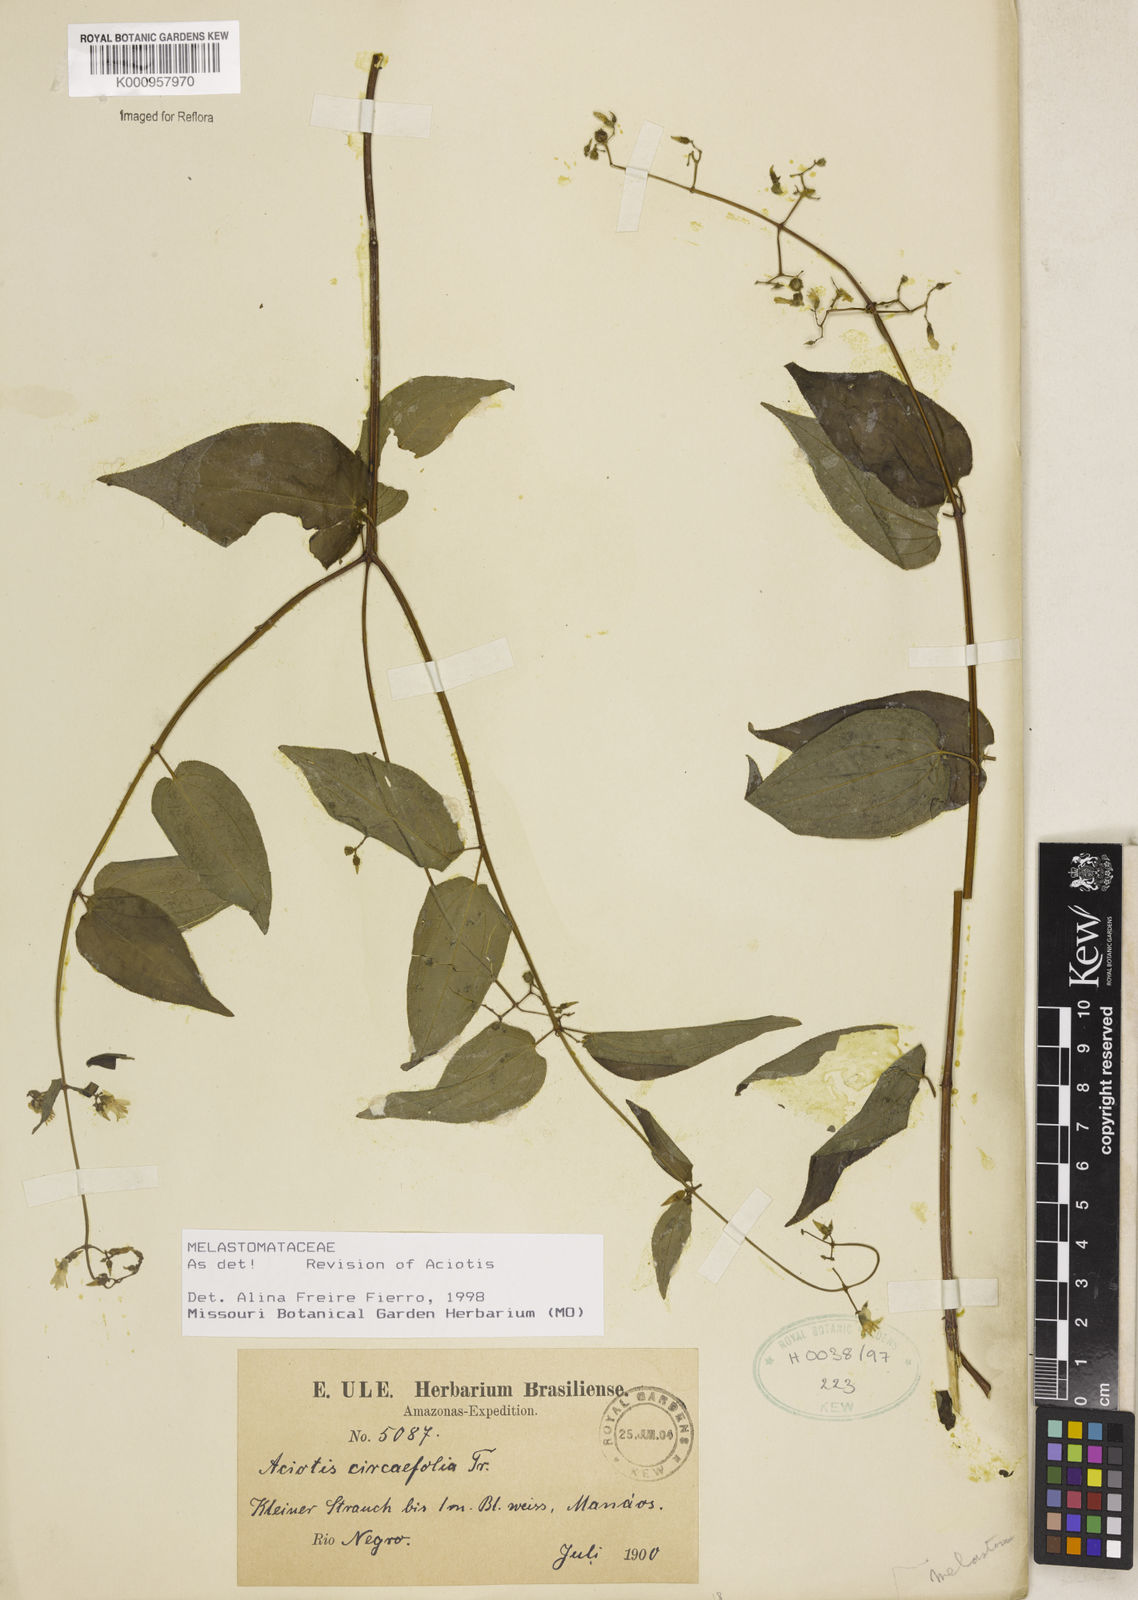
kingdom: Plantae
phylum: Tracheophyta
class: Magnoliopsida
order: Myrtales
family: Melastomataceae
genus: Aciotis
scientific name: Aciotis circaeifolia
